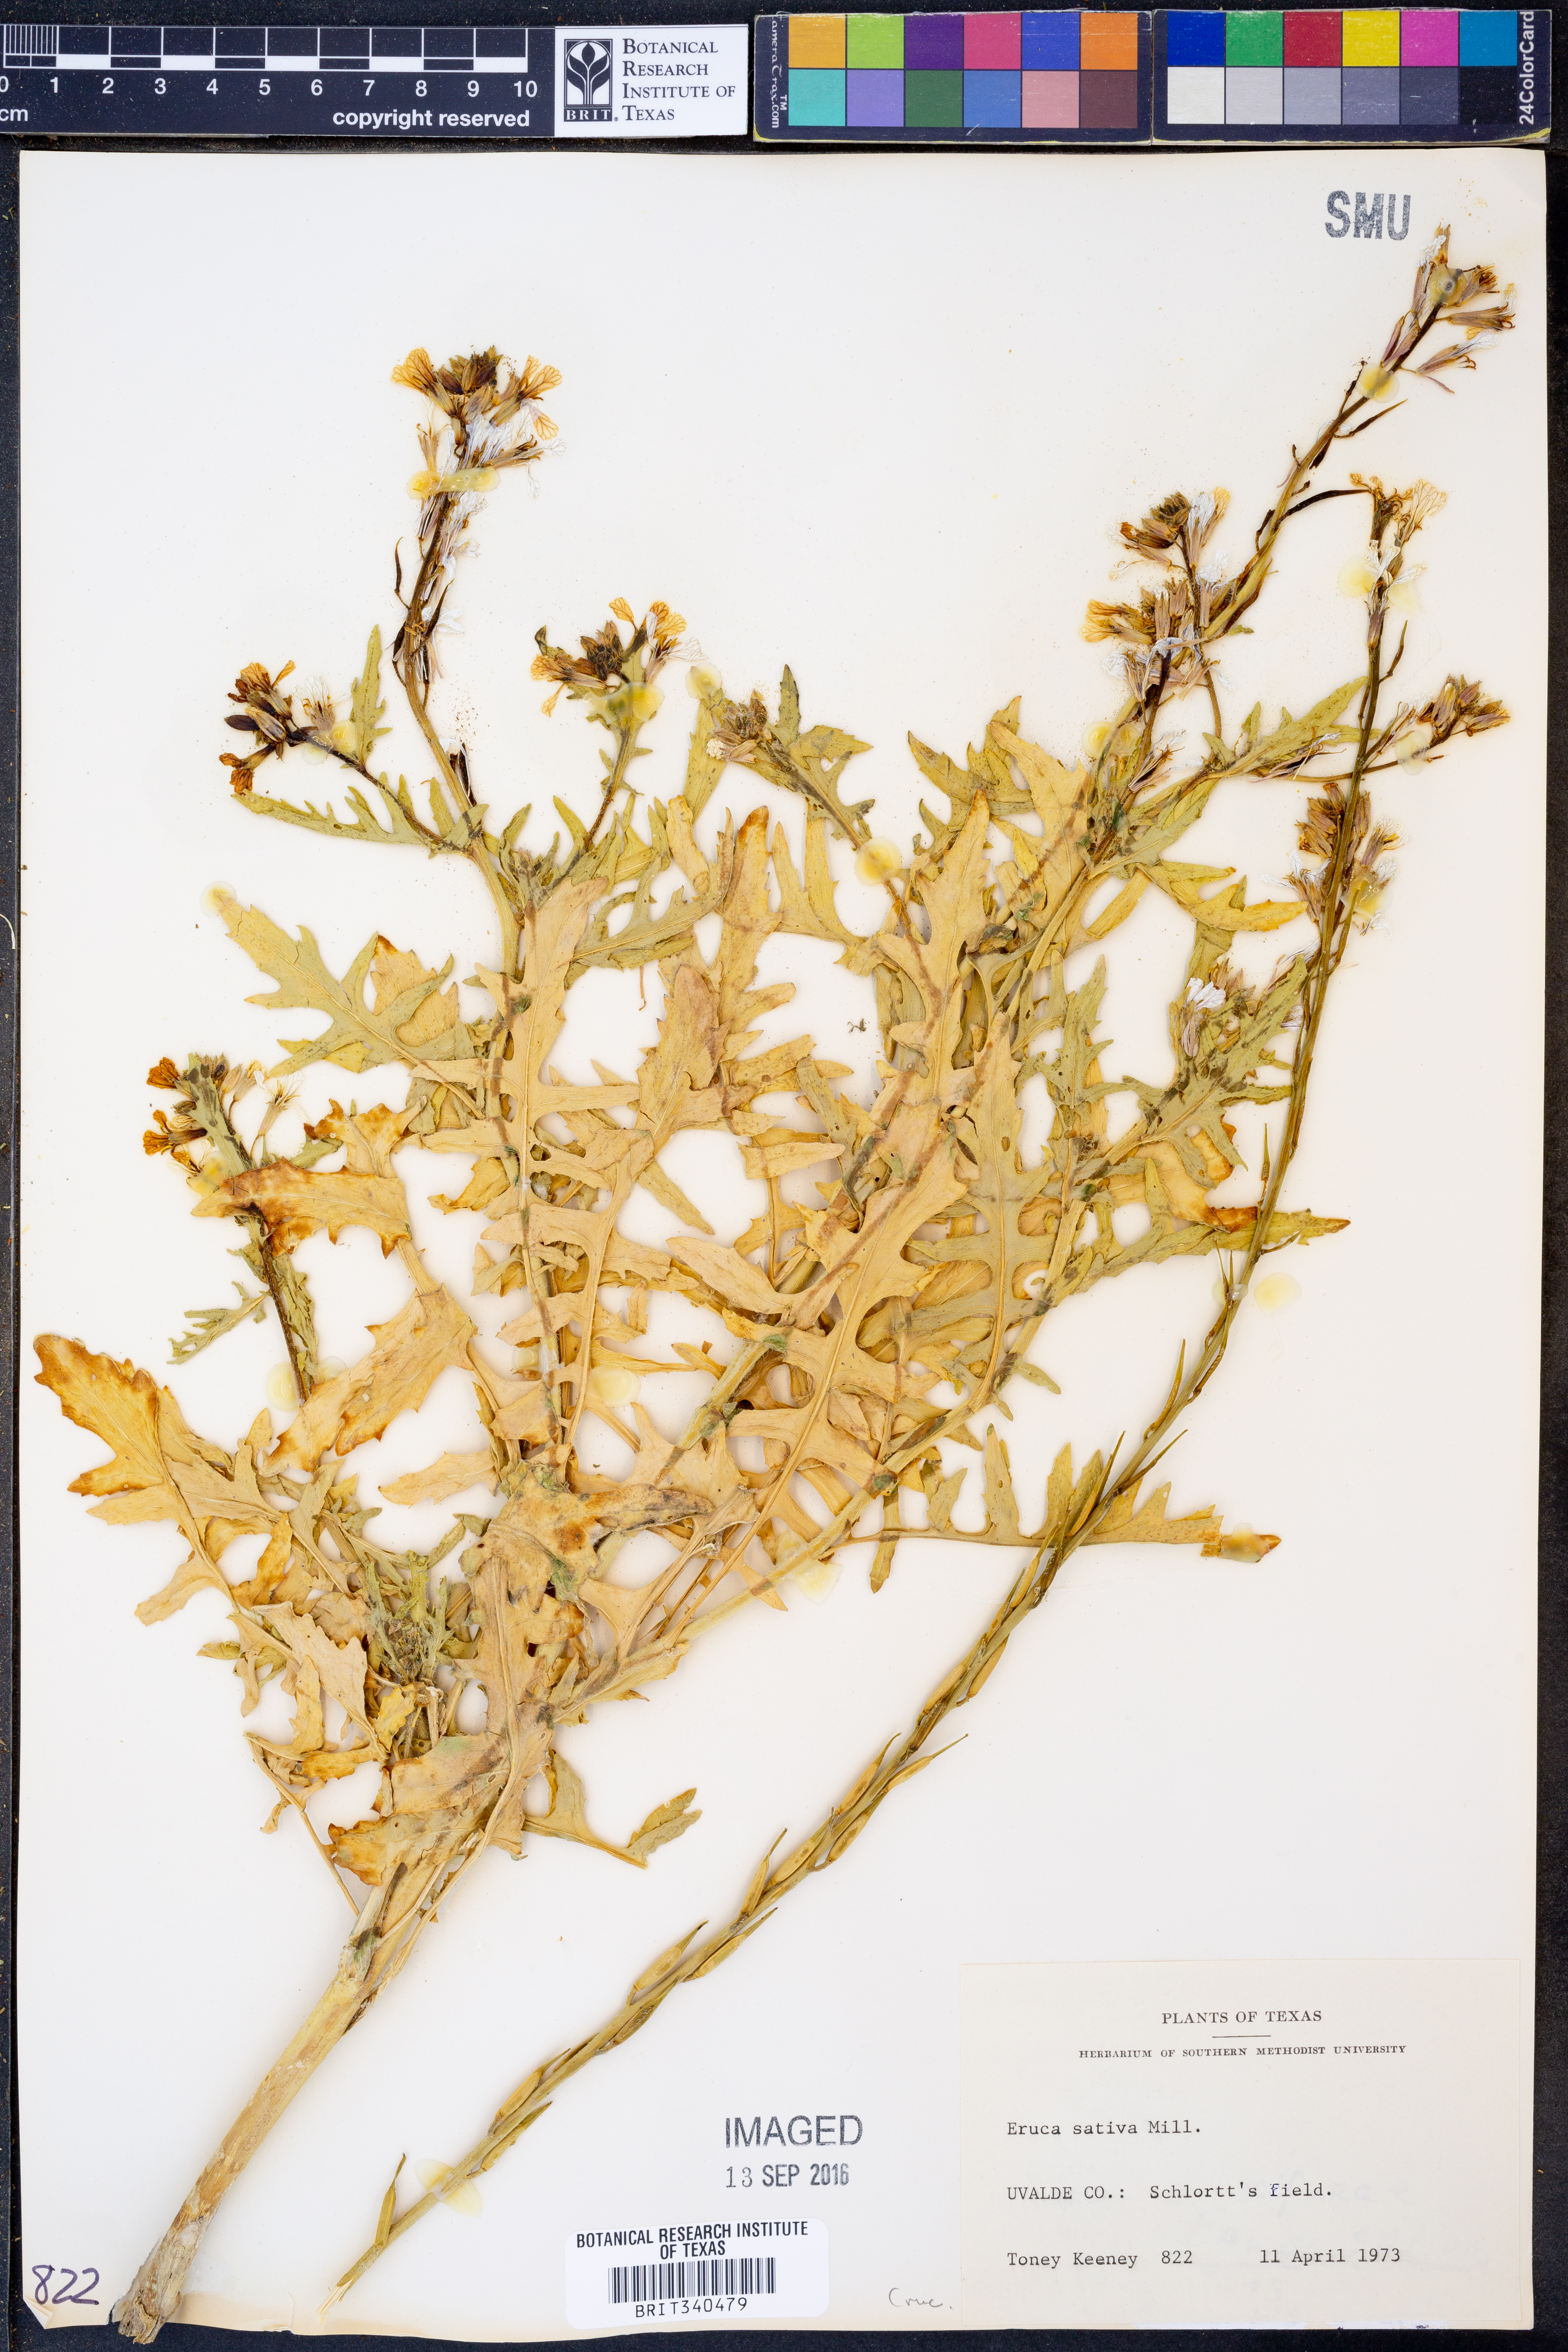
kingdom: Plantae
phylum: Tracheophyta
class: Magnoliopsida
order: Brassicales
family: Brassicaceae
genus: Eruca
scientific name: Eruca vesicaria
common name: Garden rocket
